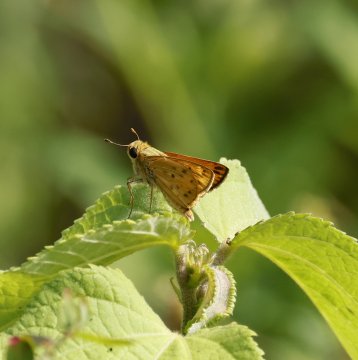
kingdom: Animalia
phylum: Arthropoda
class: Insecta
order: Lepidoptera
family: Hesperiidae
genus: Hylephila
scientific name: Hylephila phyleus
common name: Fiery Skipper
